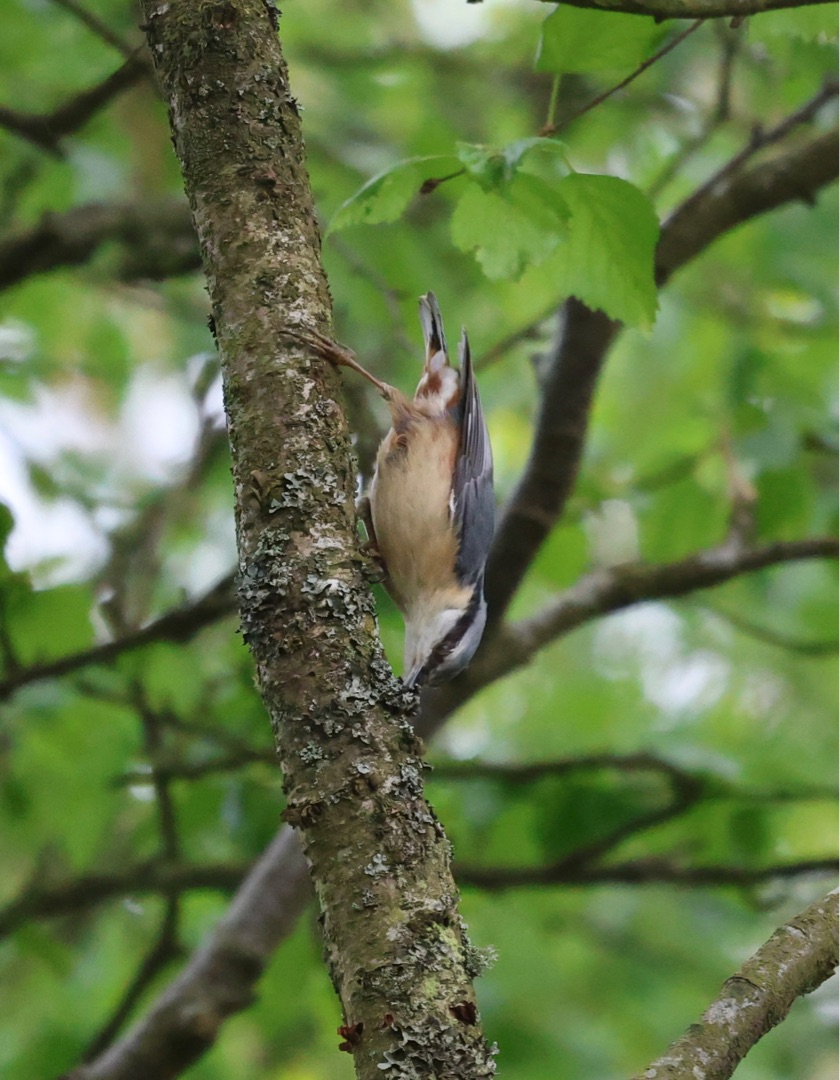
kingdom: Animalia
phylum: Chordata
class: Aves
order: Passeriformes
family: Sittidae
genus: Sitta
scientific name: Sitta europaea
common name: Spætmejse
